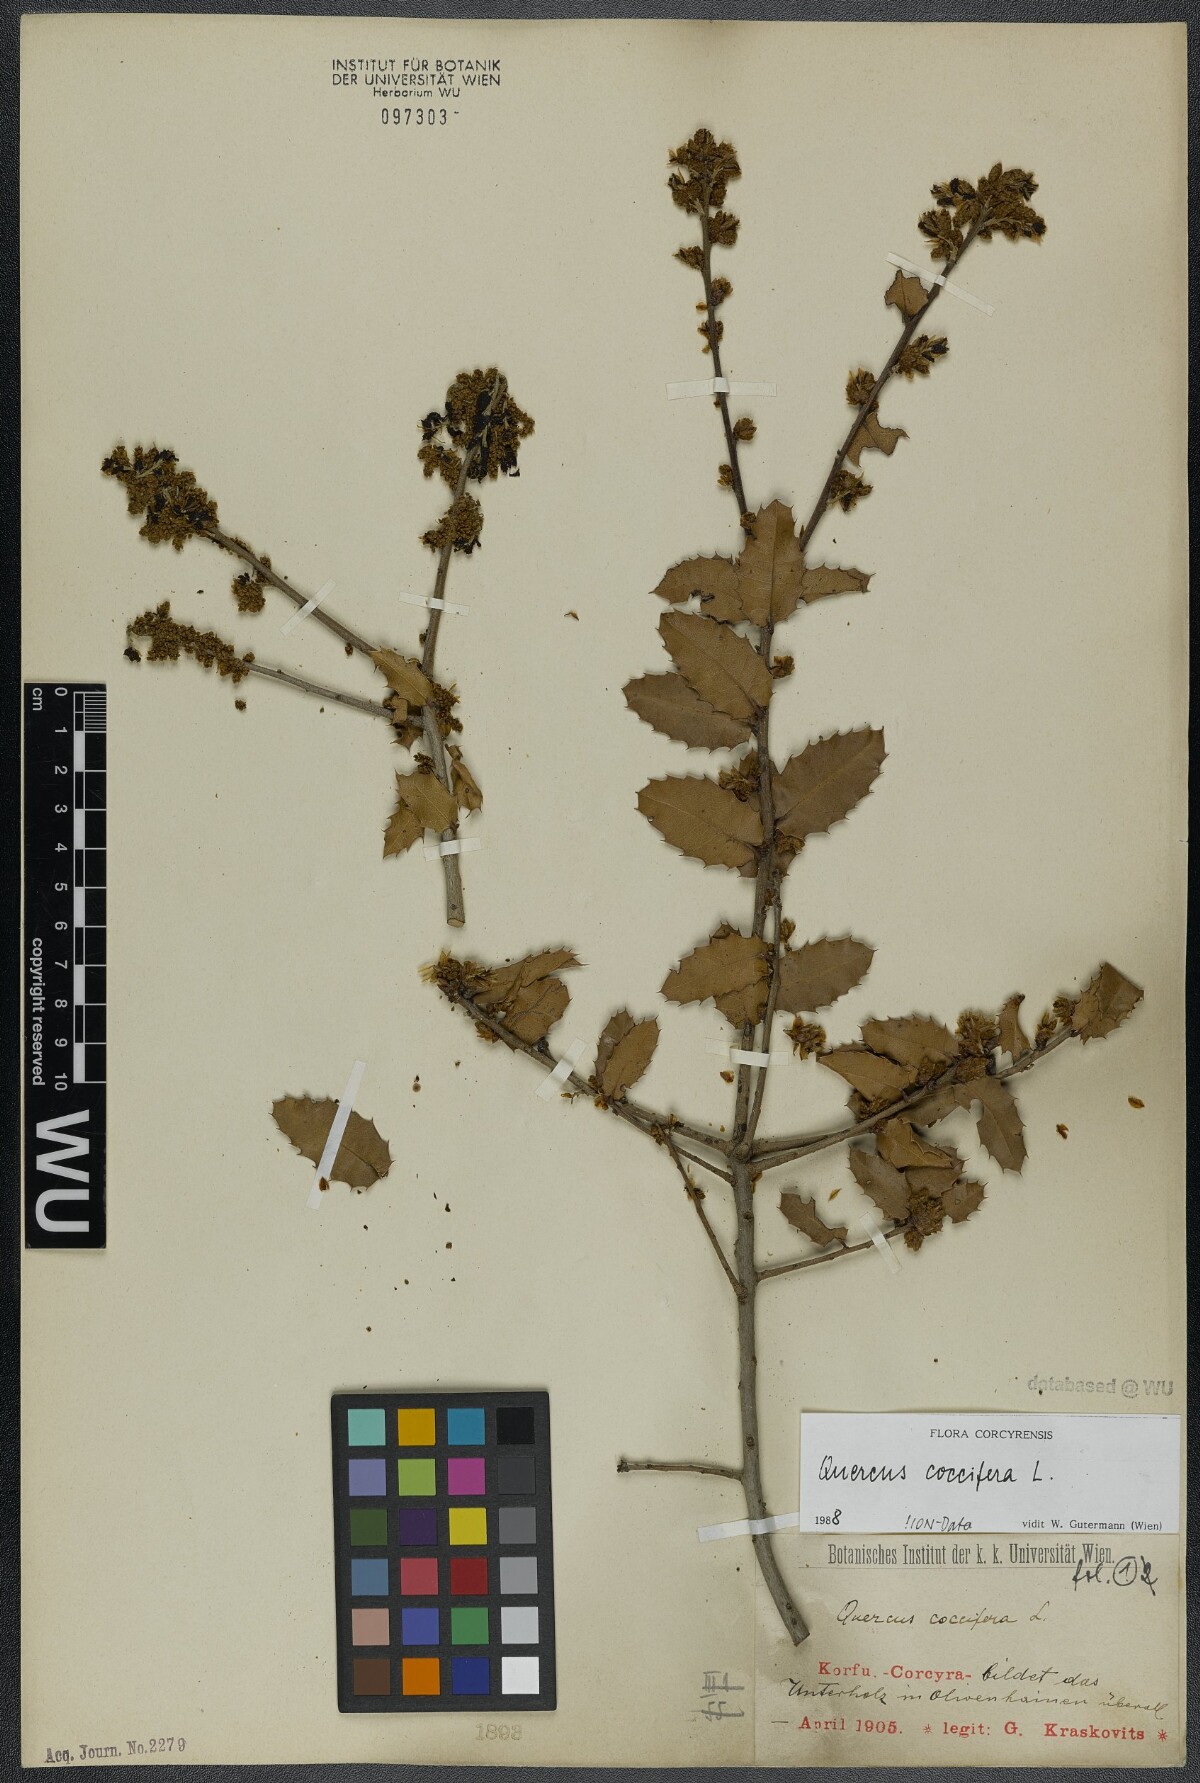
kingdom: Plantae
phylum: Tracheophyta
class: Magnoliopsida
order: Fagales
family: Fagaceae
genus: Quercus
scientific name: Quercus coccifera
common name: Kermes oak
